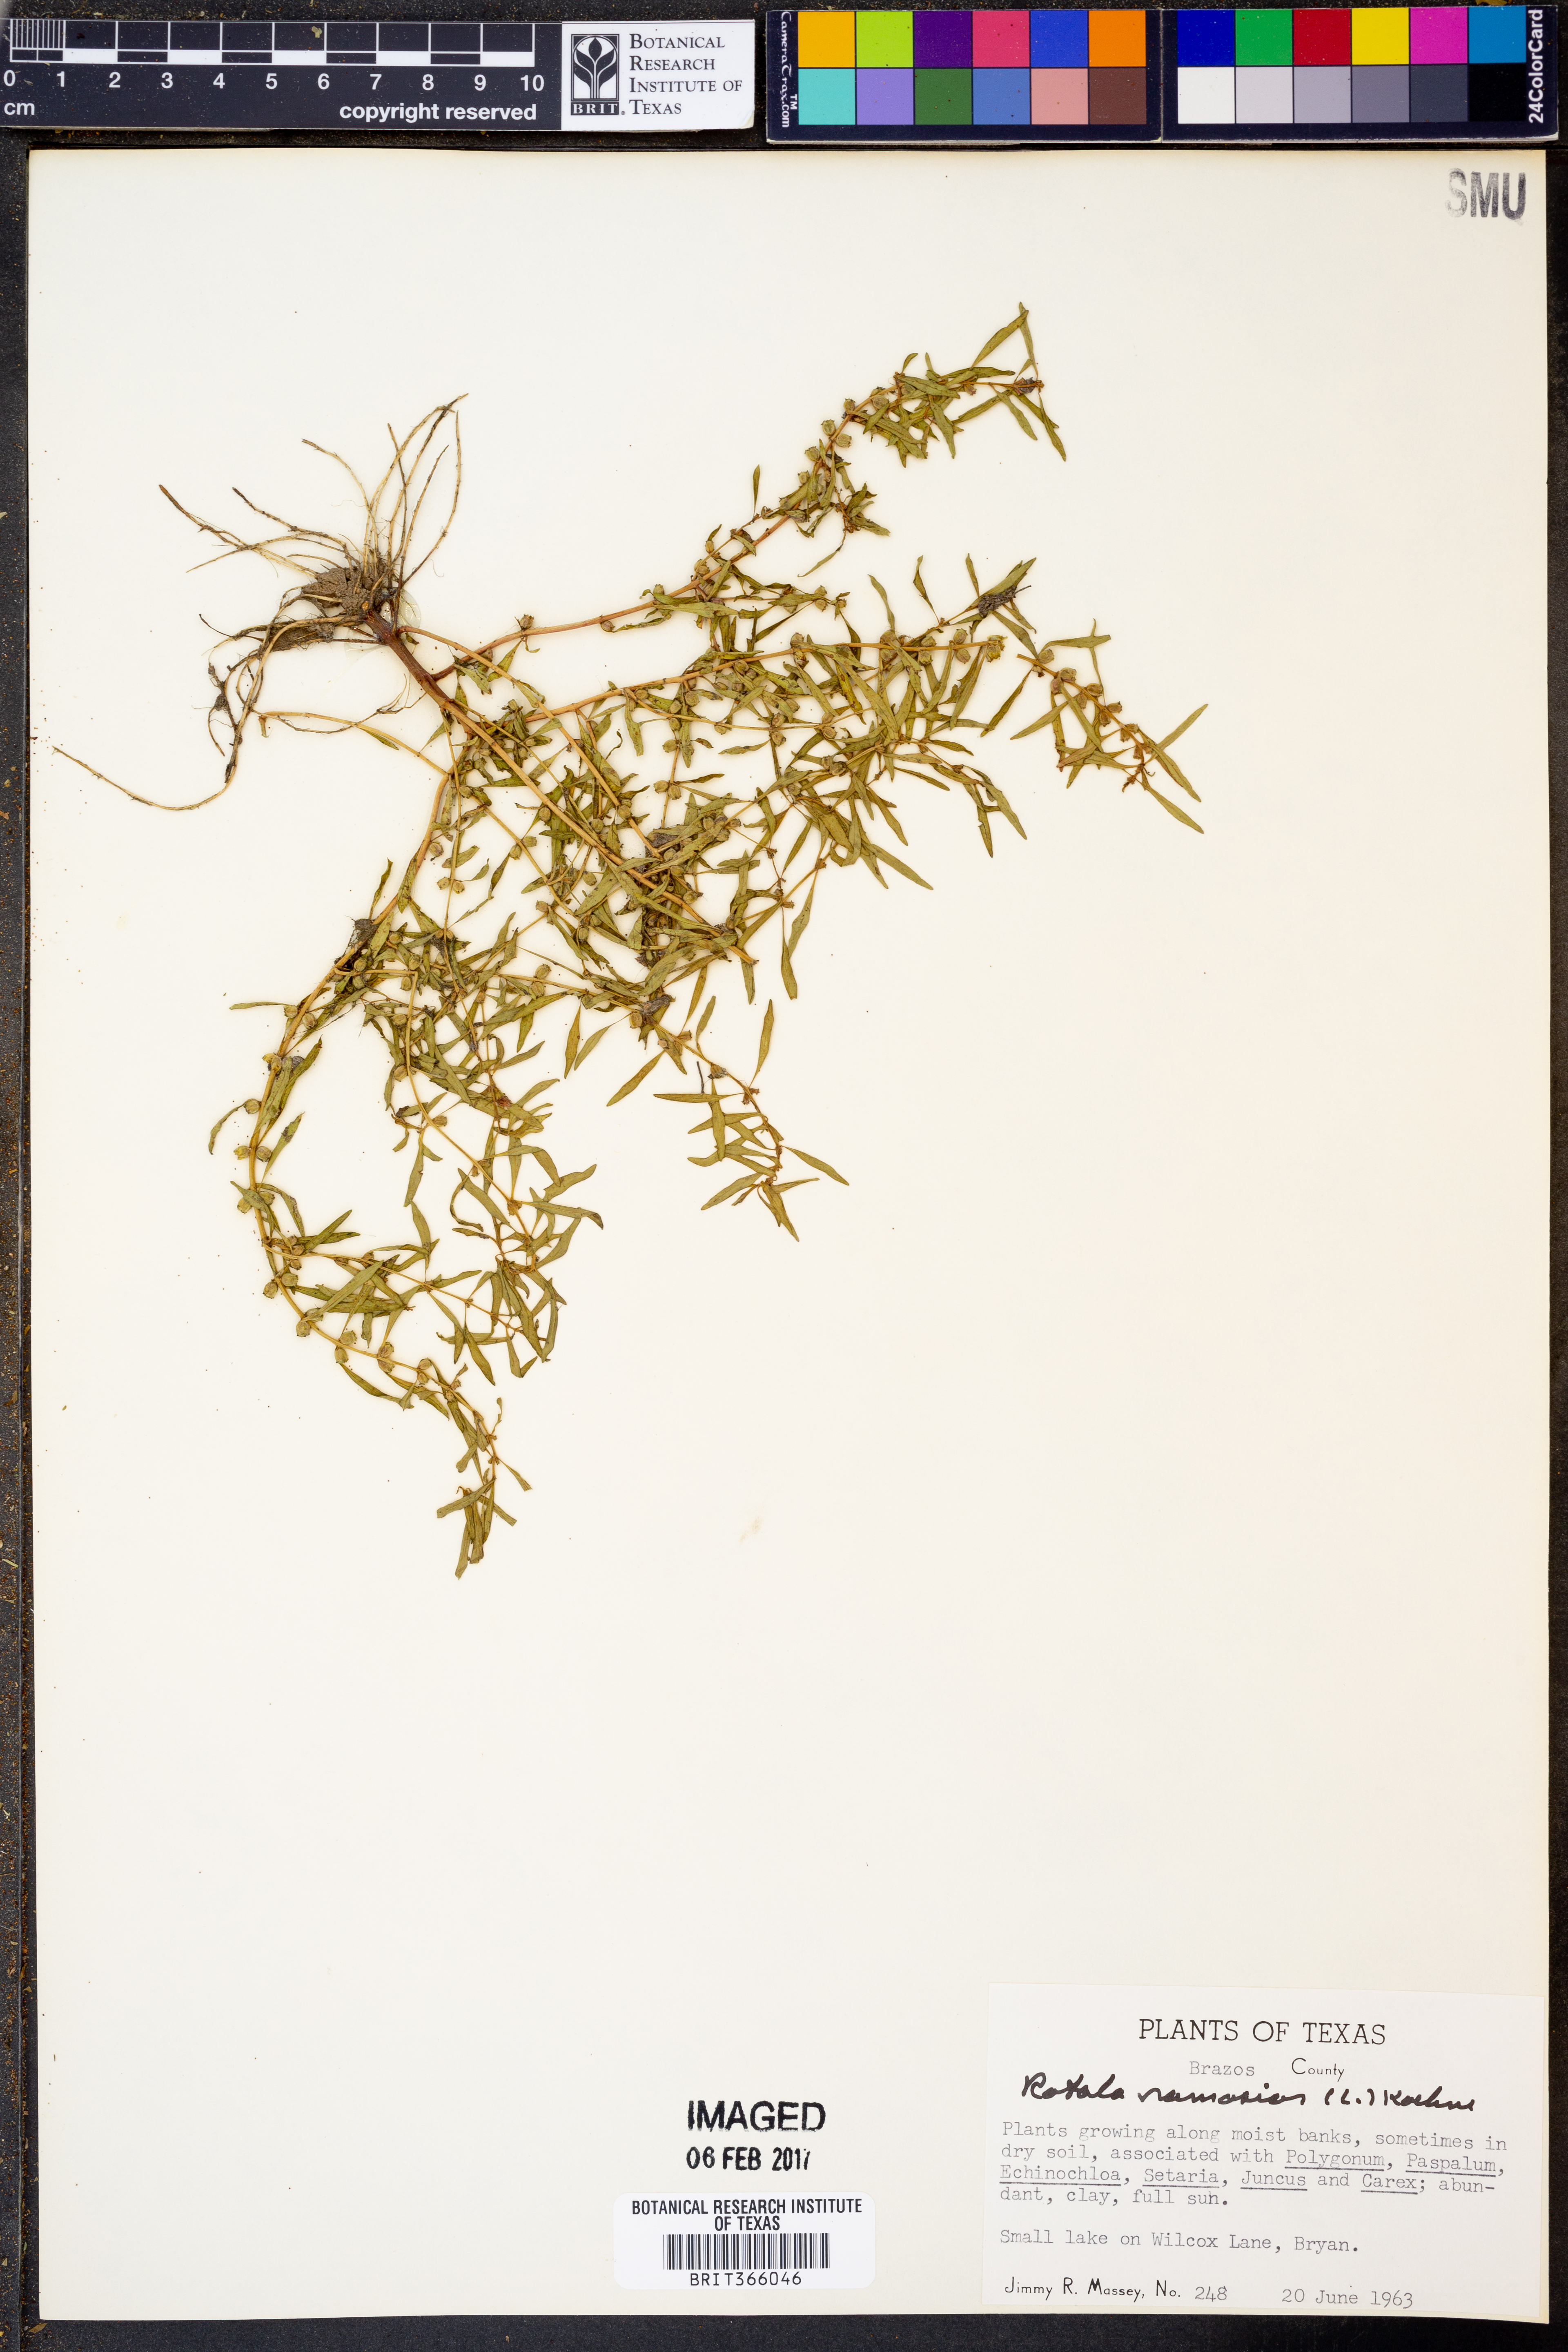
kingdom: Plantae
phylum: Tracheophyta
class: Magnoliopsida
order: Myrtales
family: Lythraceae
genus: Rotala
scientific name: Rotala ramosior
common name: Lowland rotala
